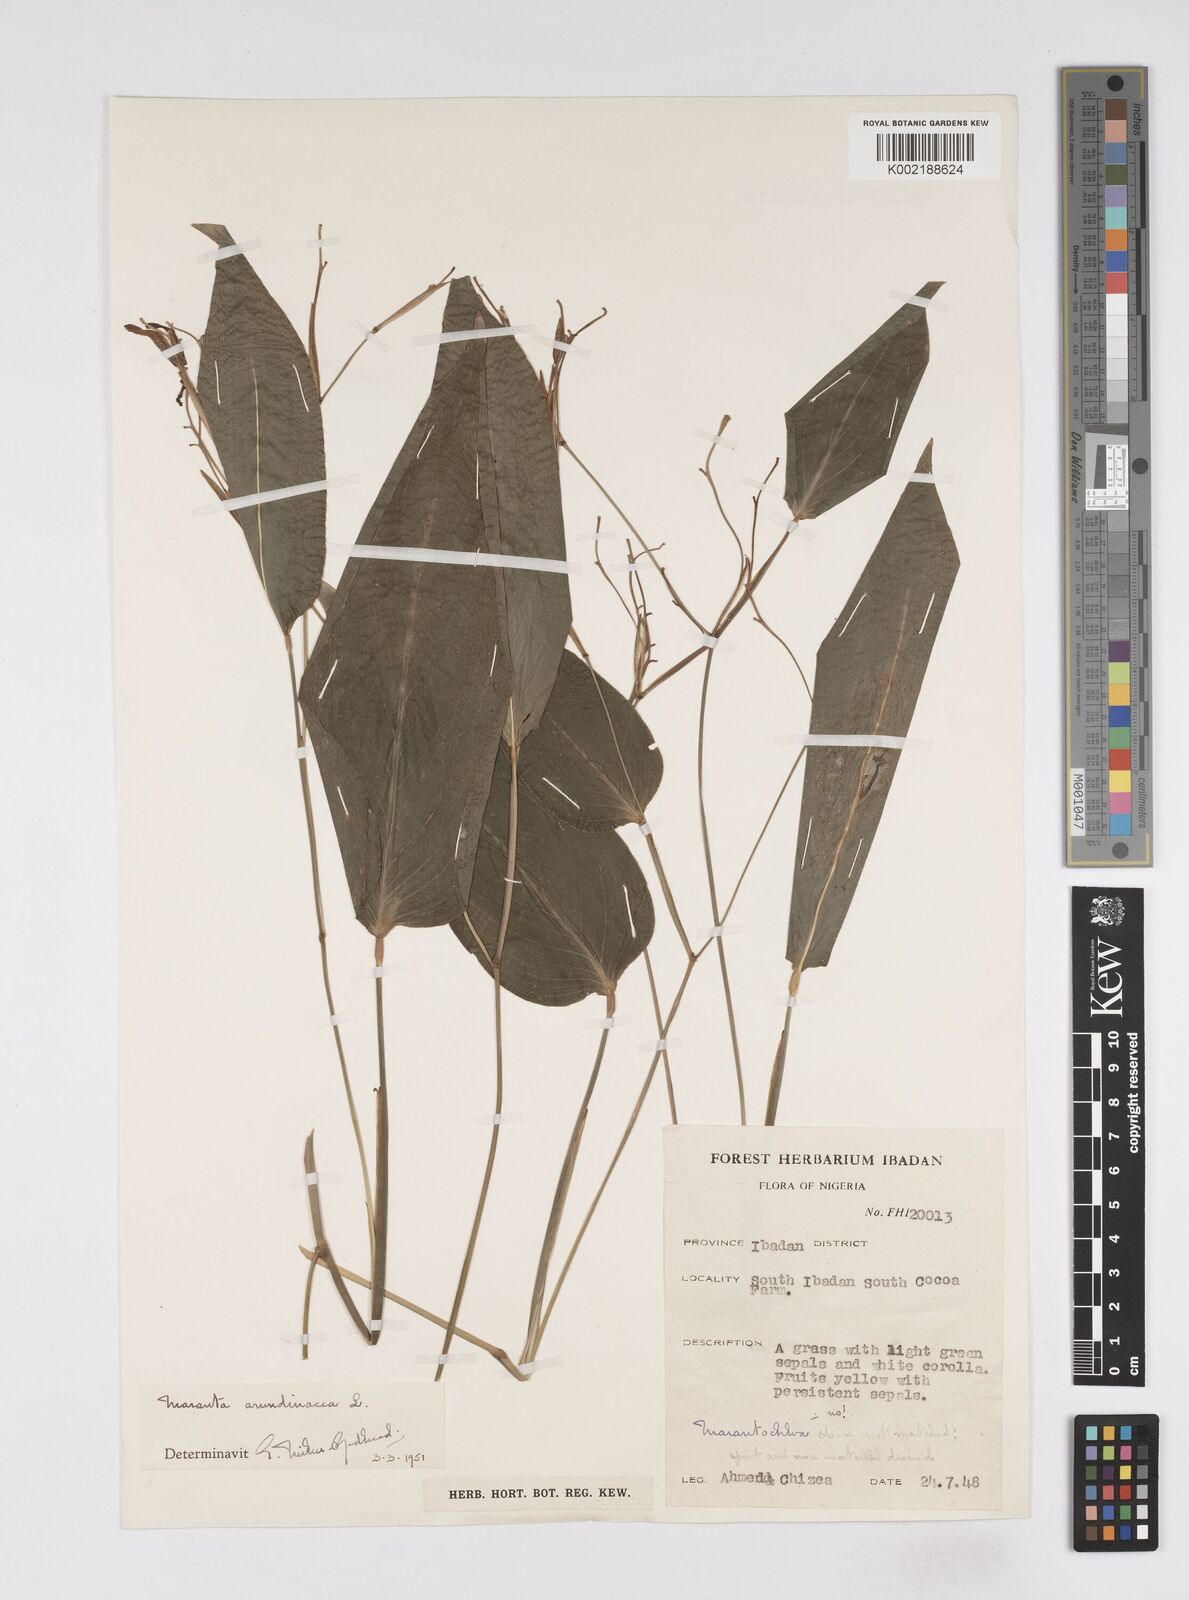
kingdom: Plantae
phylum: Tracheophyta
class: Liliopsida
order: Zingiberales
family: Marantaceae
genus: Maranta
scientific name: Maranta arundinacea
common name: Arrowroot
